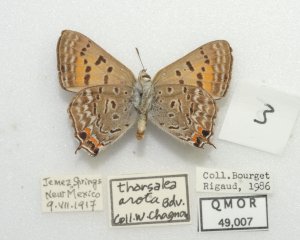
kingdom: Animalia
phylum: Arthropoda
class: Insecta
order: Lepidoptera
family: Sesiidae
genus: Sesia
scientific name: Sesia Lycaena arota
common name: Tailed Copper
